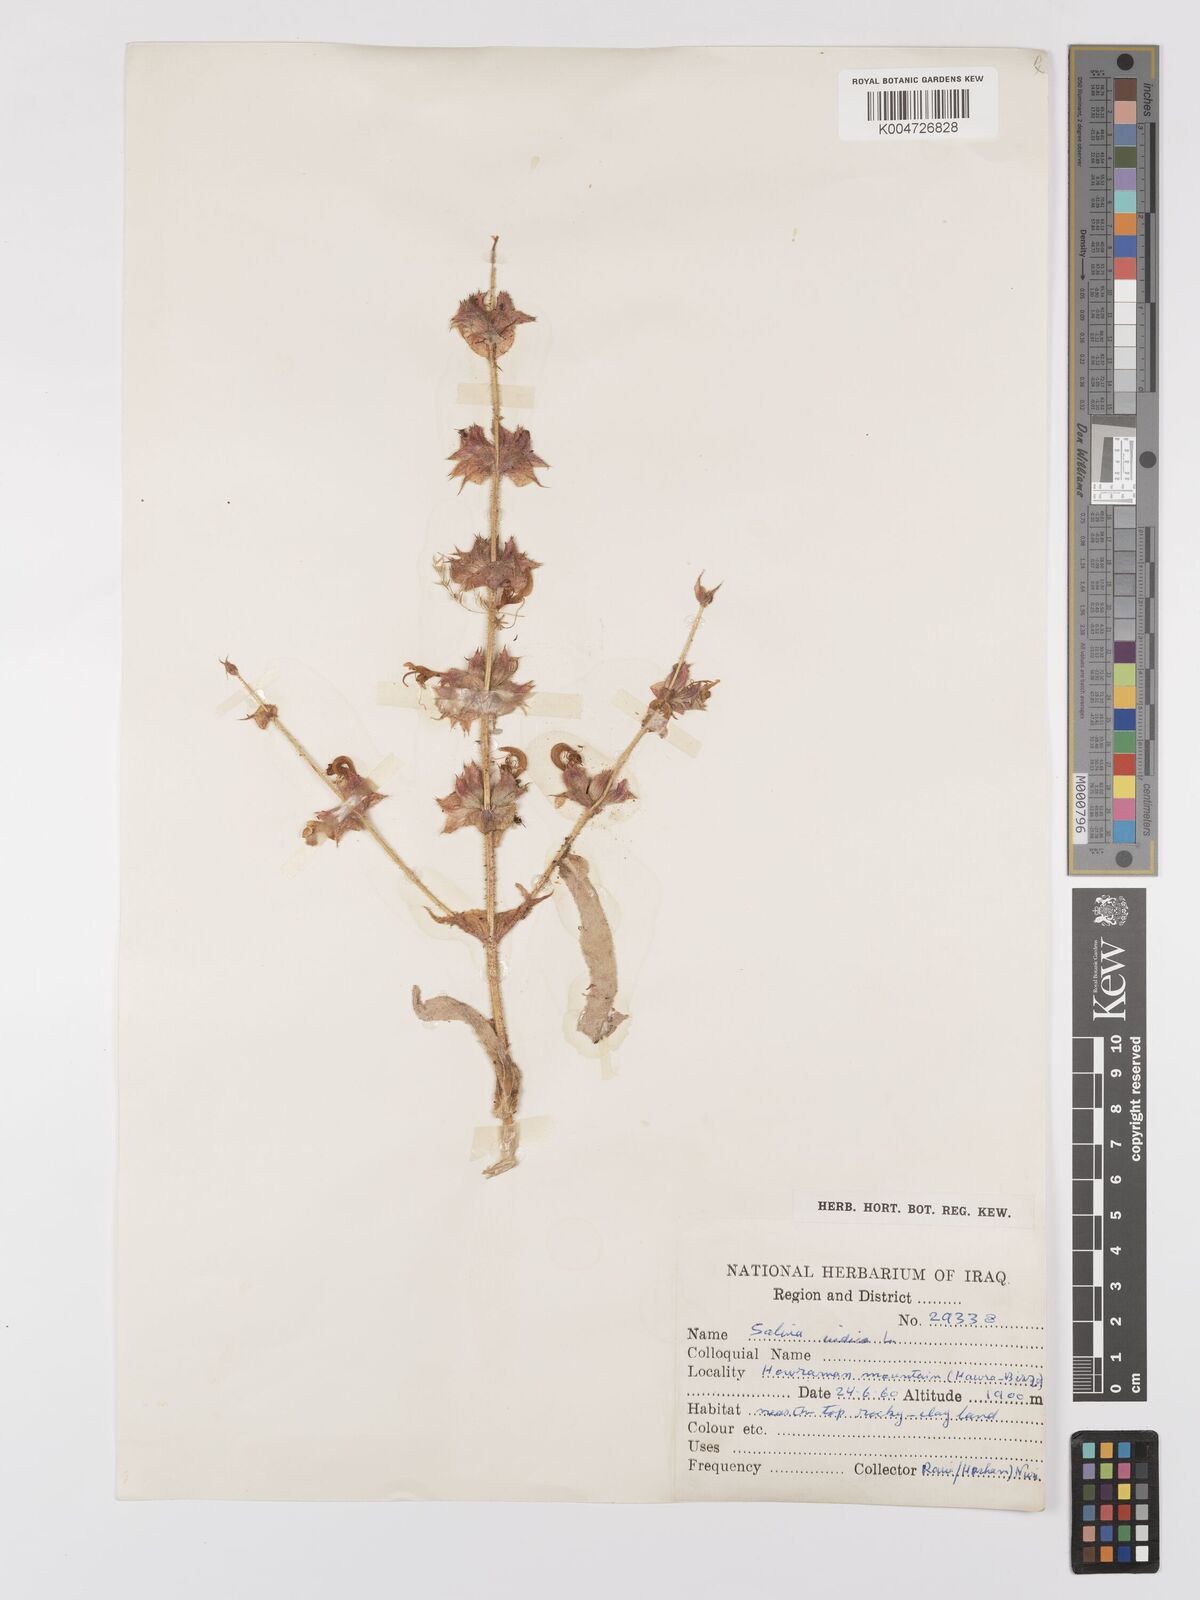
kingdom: Plantae
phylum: Tracheophyta
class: Magnoliopsida
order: Lamiales
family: Lamiaceae
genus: Salvia
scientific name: Salvia
